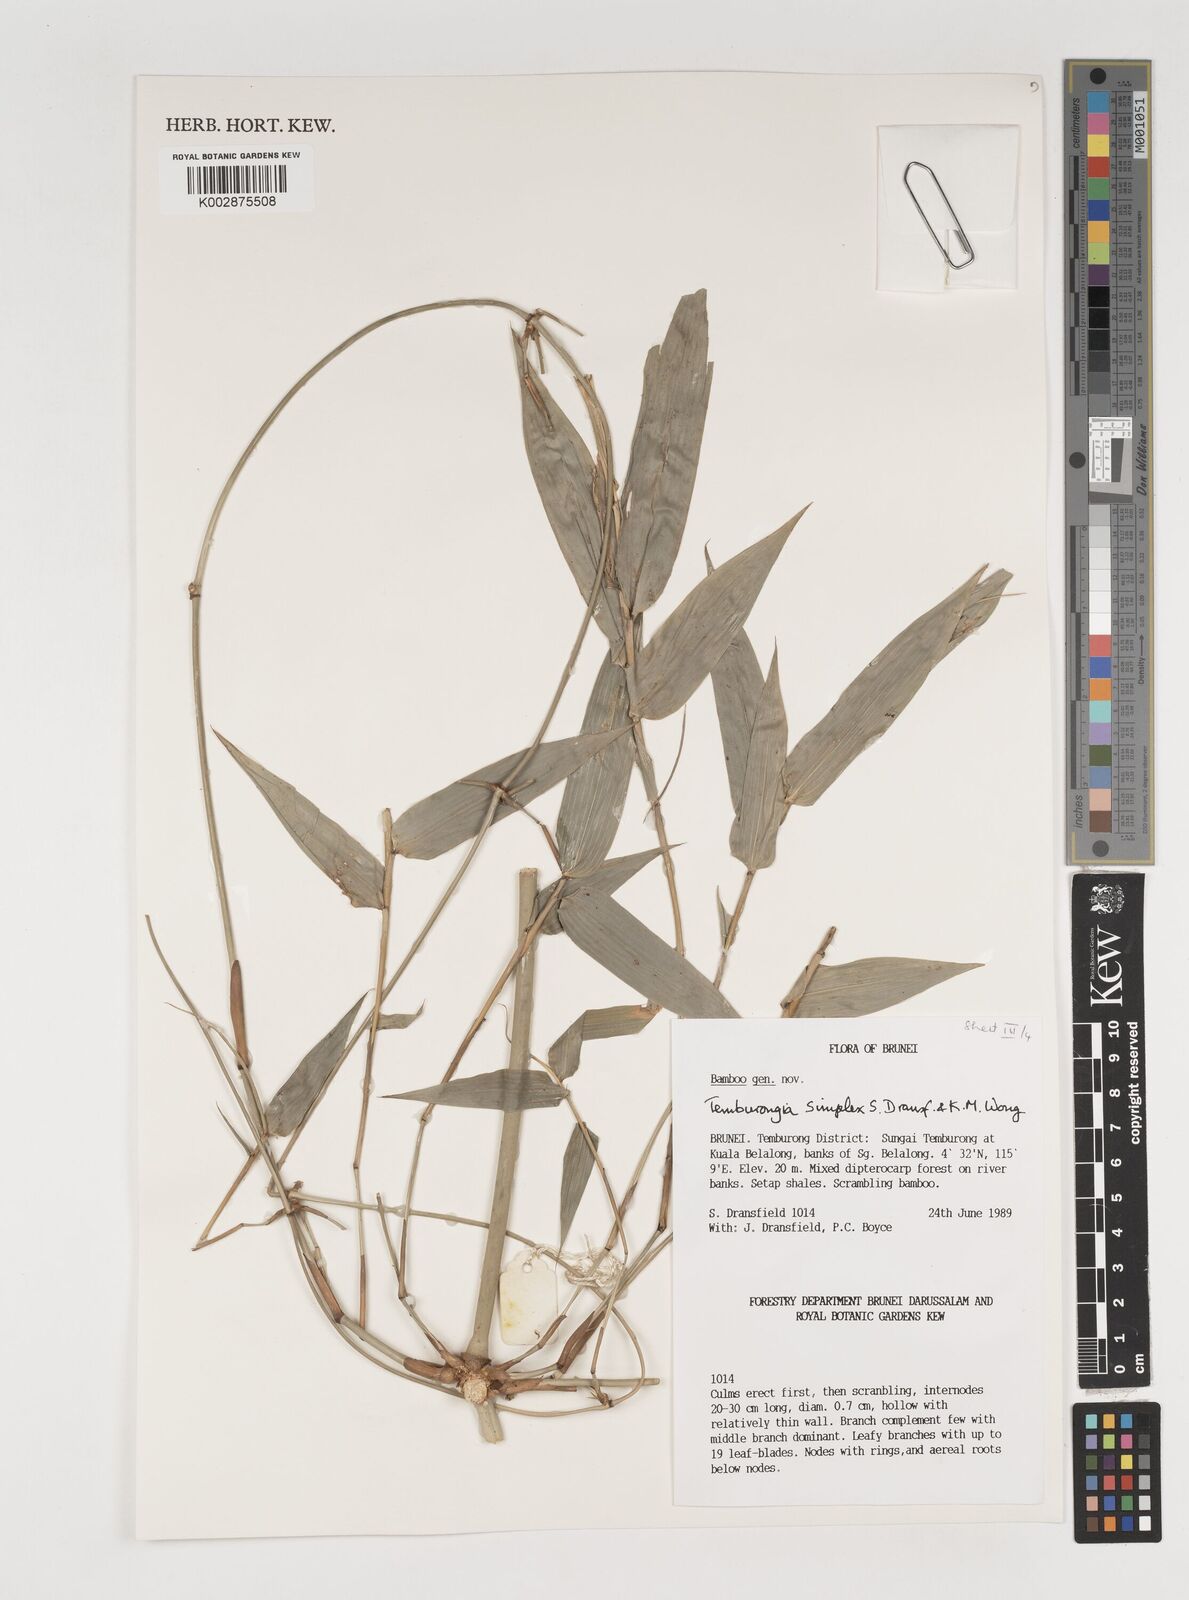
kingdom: Plantae
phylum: Tracheophyta
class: Liliopsida
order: Poales
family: Poaceae
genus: Temburongia
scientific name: Temburongia simplex
